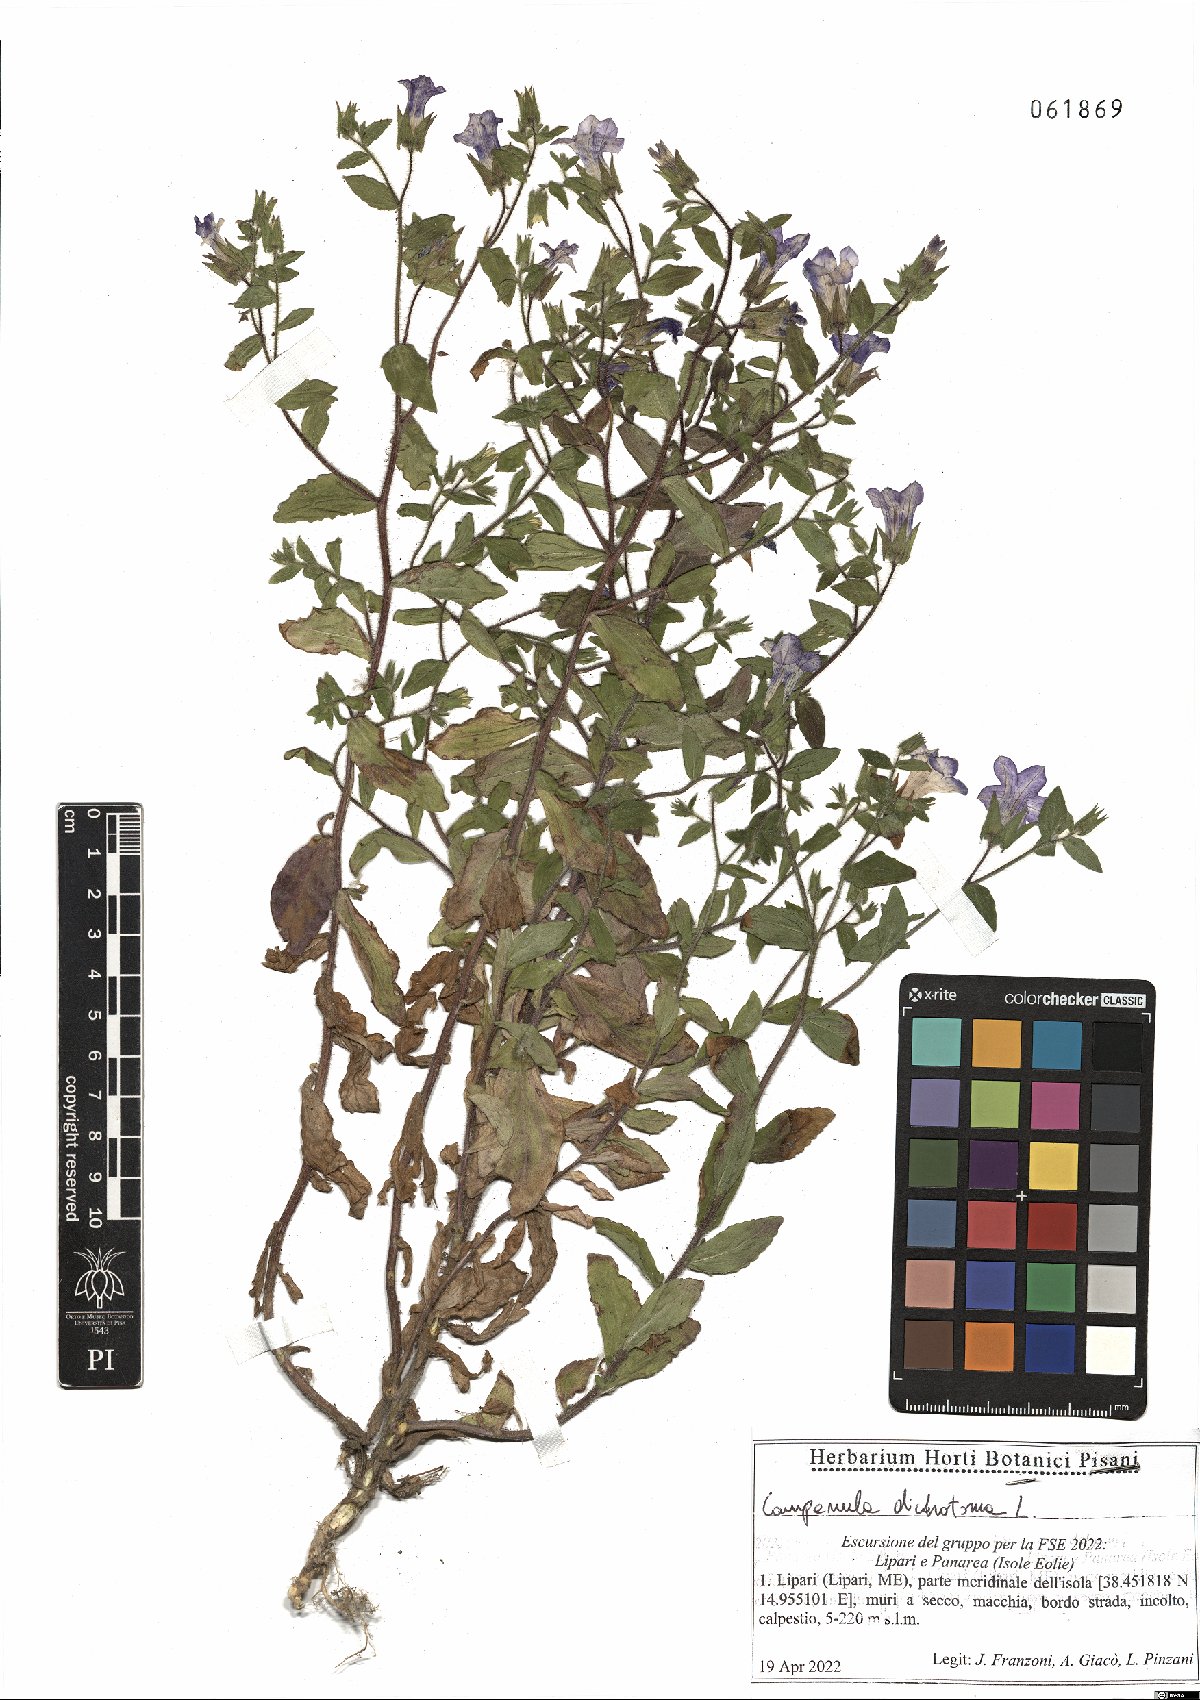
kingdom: Plantae
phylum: Tracheophyta
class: Magnoliopsida
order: Asterales
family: Campanulaceae
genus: Campanula
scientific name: Campanula dichotoma
